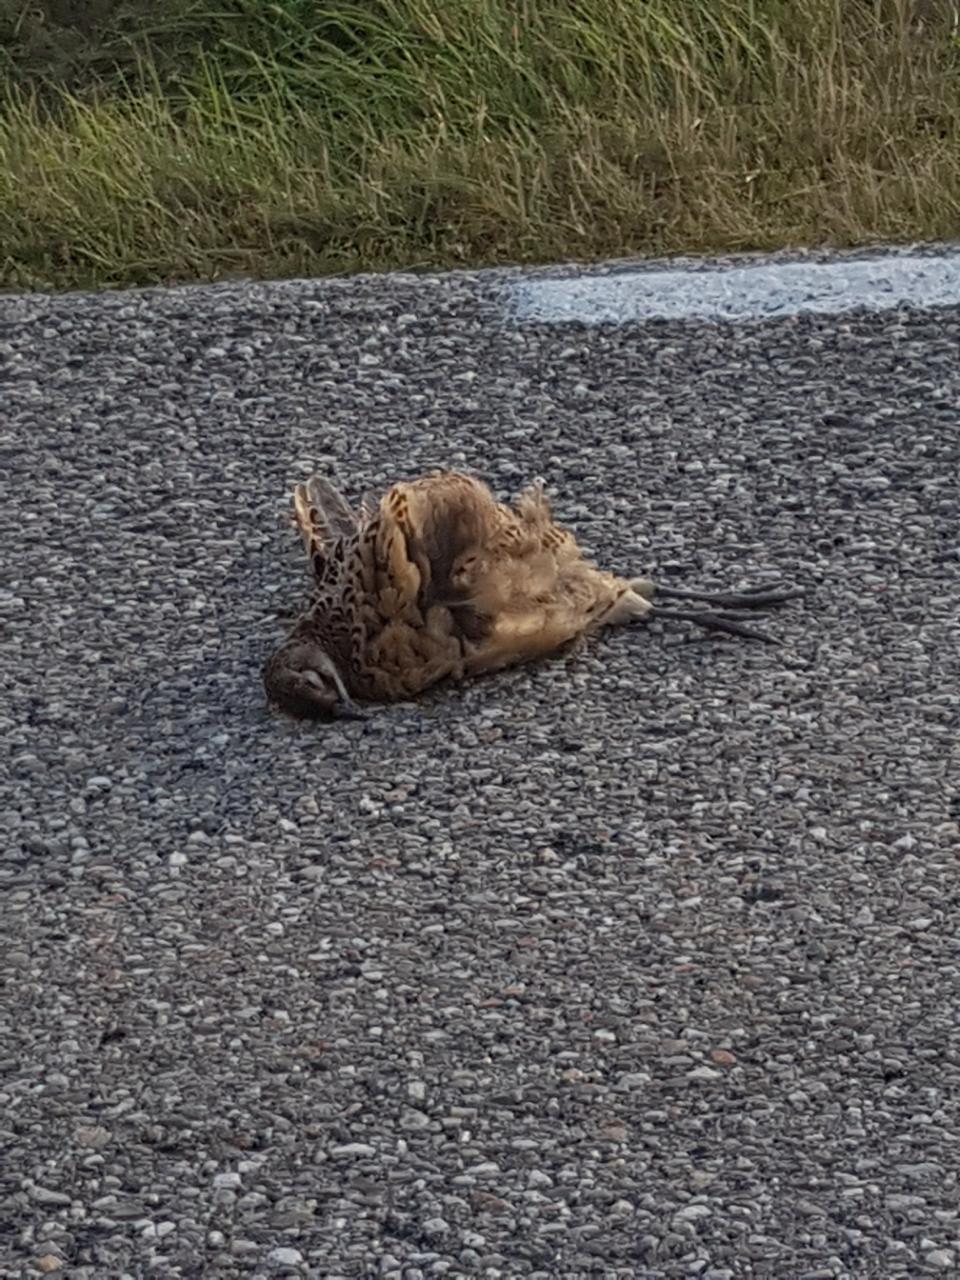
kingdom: Animalia
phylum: Chordata
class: Aves
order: Galliformes
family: Phasianidae
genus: Phasianus
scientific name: Phasianus colchicus
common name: Common pheasant
